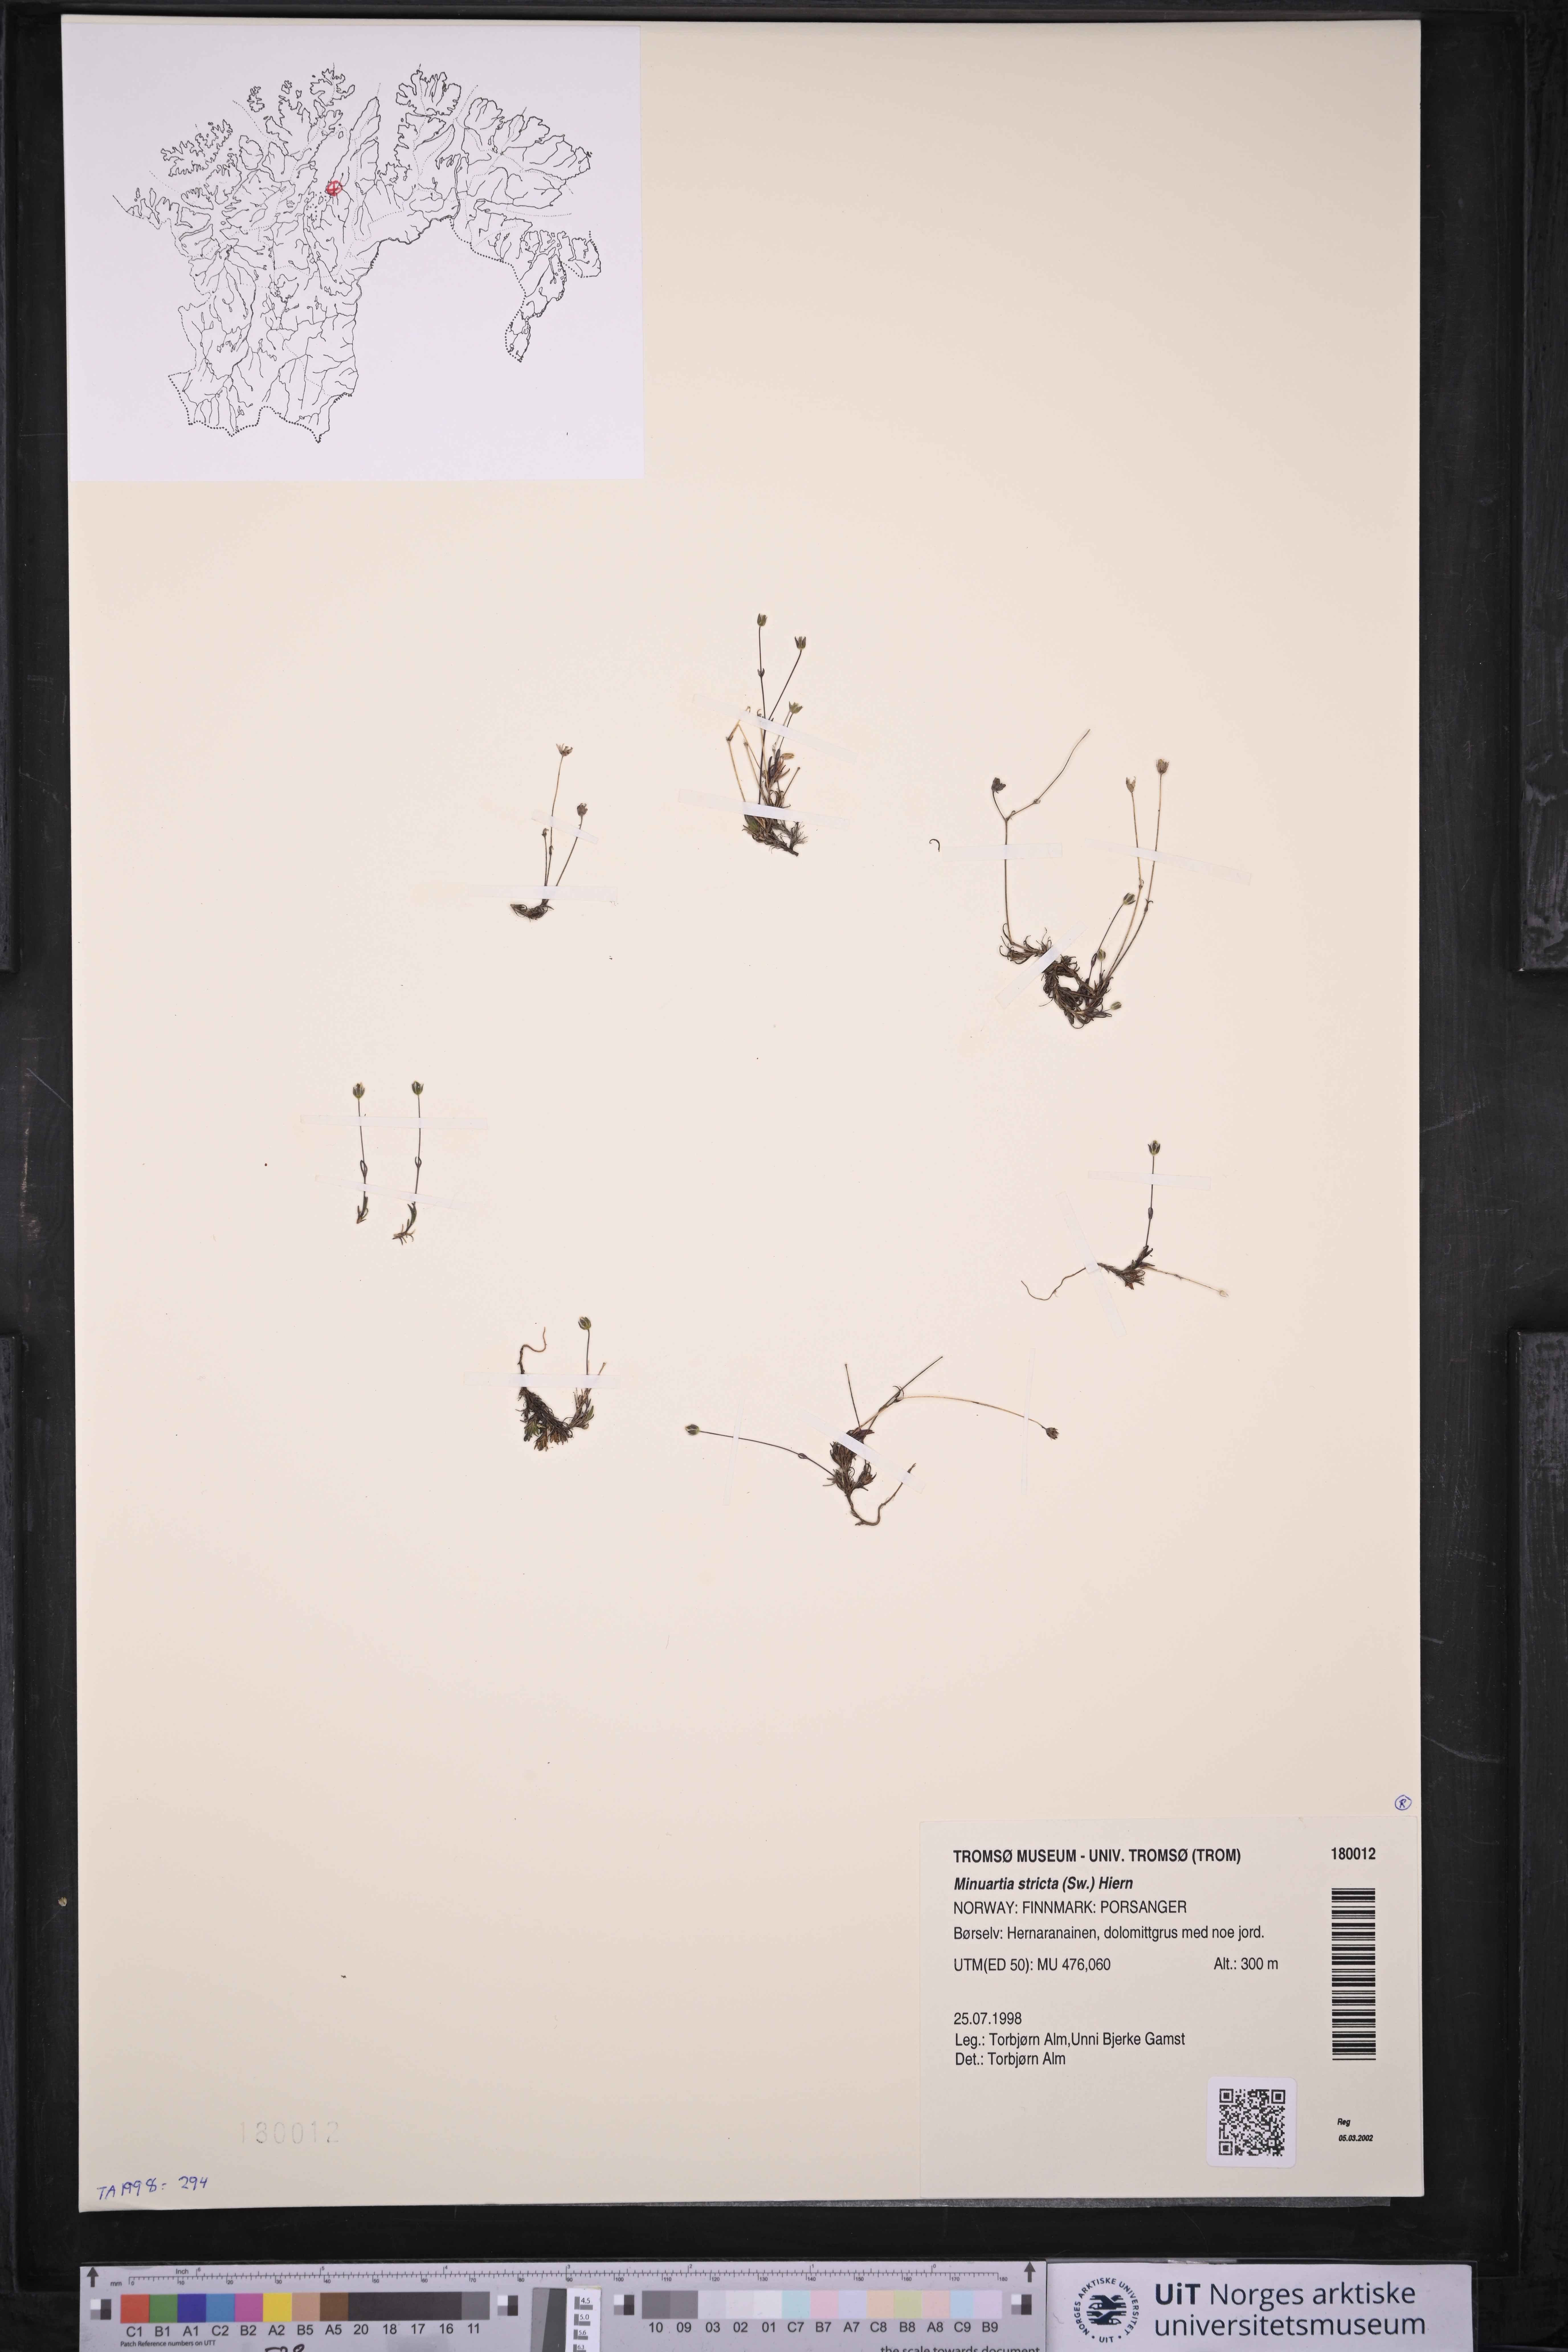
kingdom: Plantae
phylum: Tracheophyta
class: Magnoliopsida
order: Caryophyllales
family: Caryophyllaceae
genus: Sabulina
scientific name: Sabulina stricta
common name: Bog sandwort
